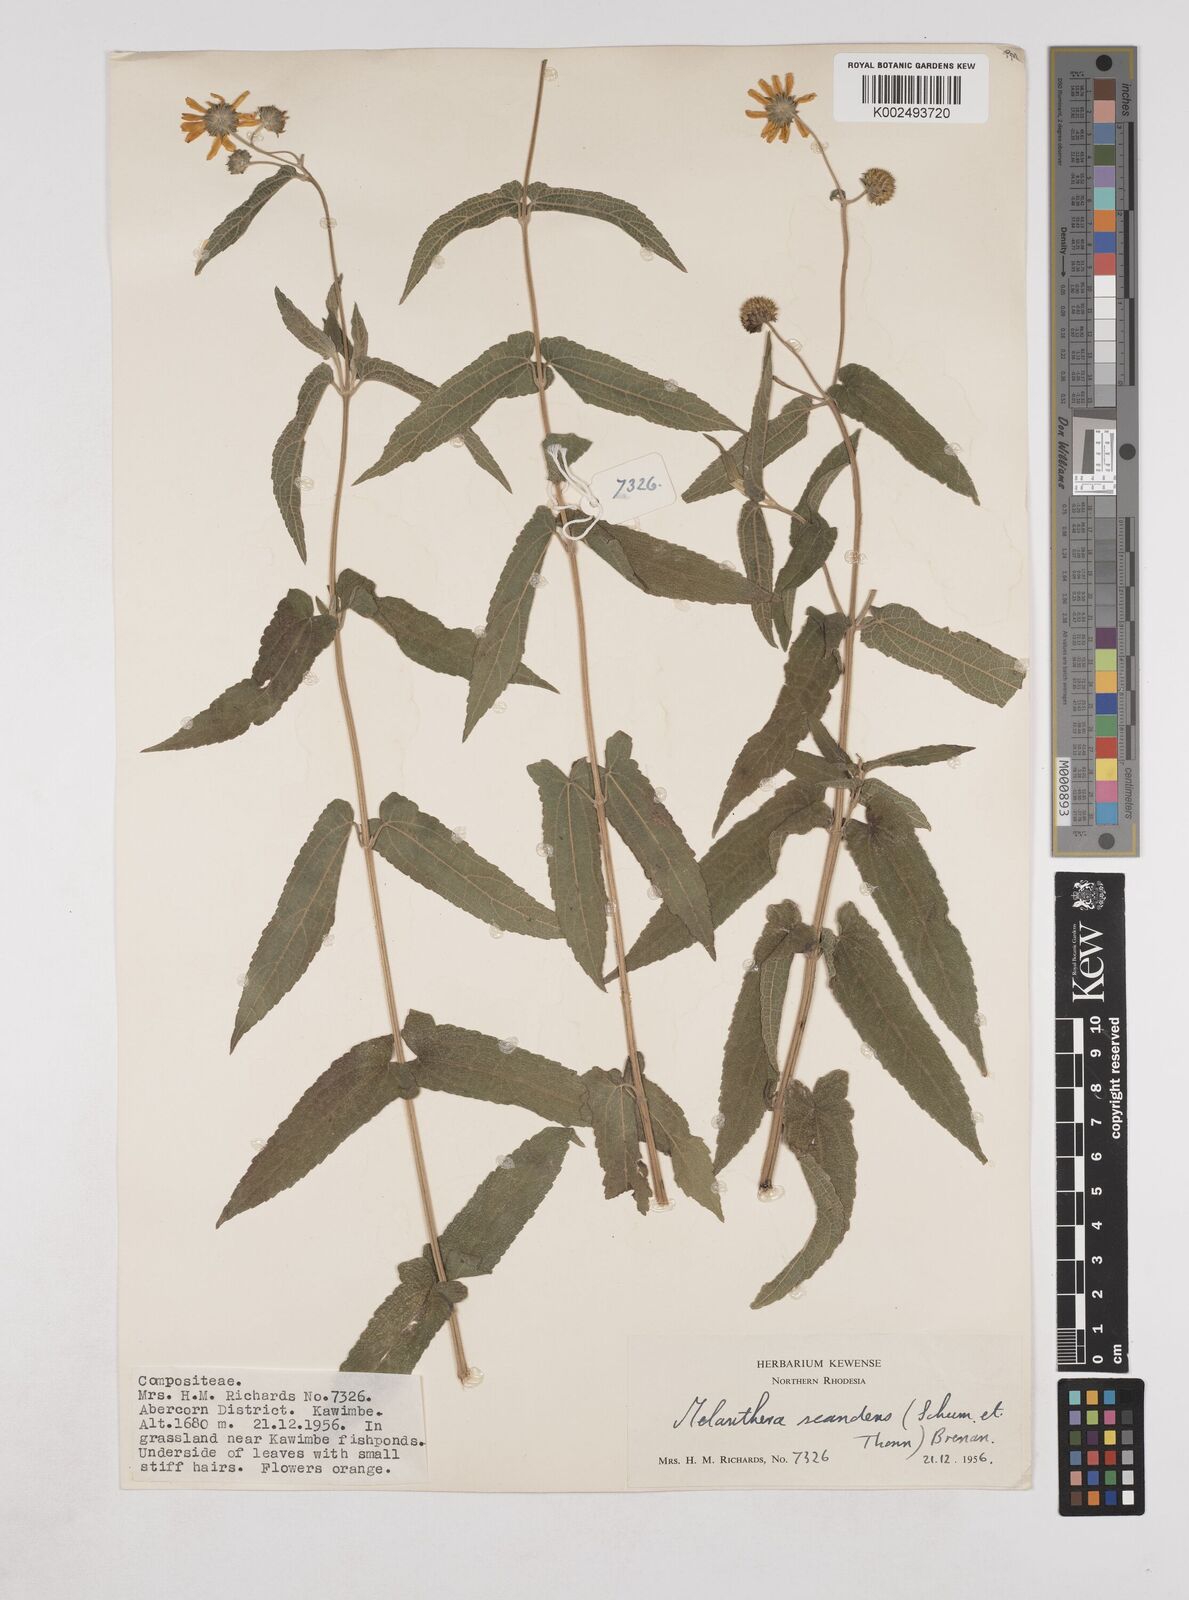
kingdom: Plantae
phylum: Tracheophyta
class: Magnoliopsida
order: Asterales
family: Asteraceae
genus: Lipotriche
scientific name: Lipotriche scandens
